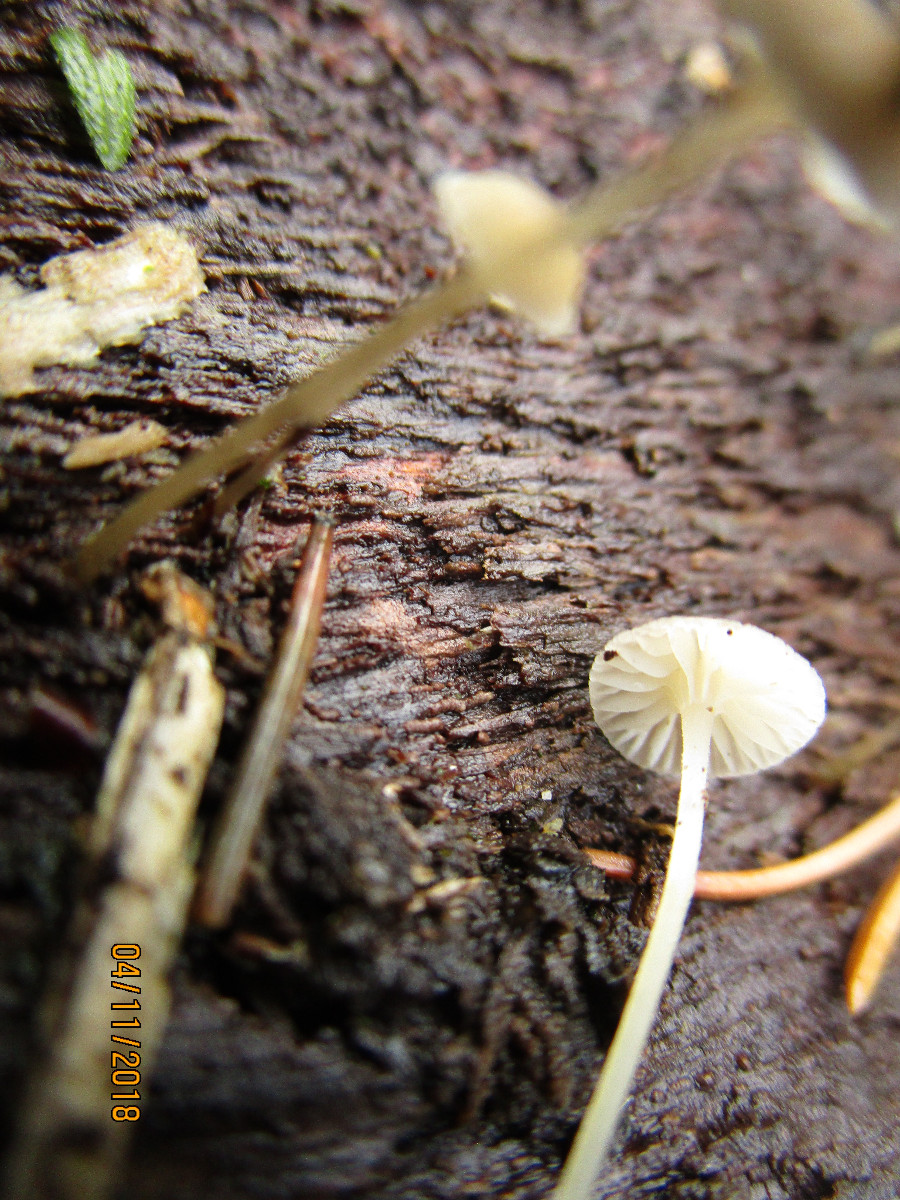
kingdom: Fungi
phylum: Basidiomycota
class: Agaricomycetes
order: Agaricales
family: Porotheleaceae
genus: Phloeomana
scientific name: Phloeomana speirea
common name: kvist-huesvamp
